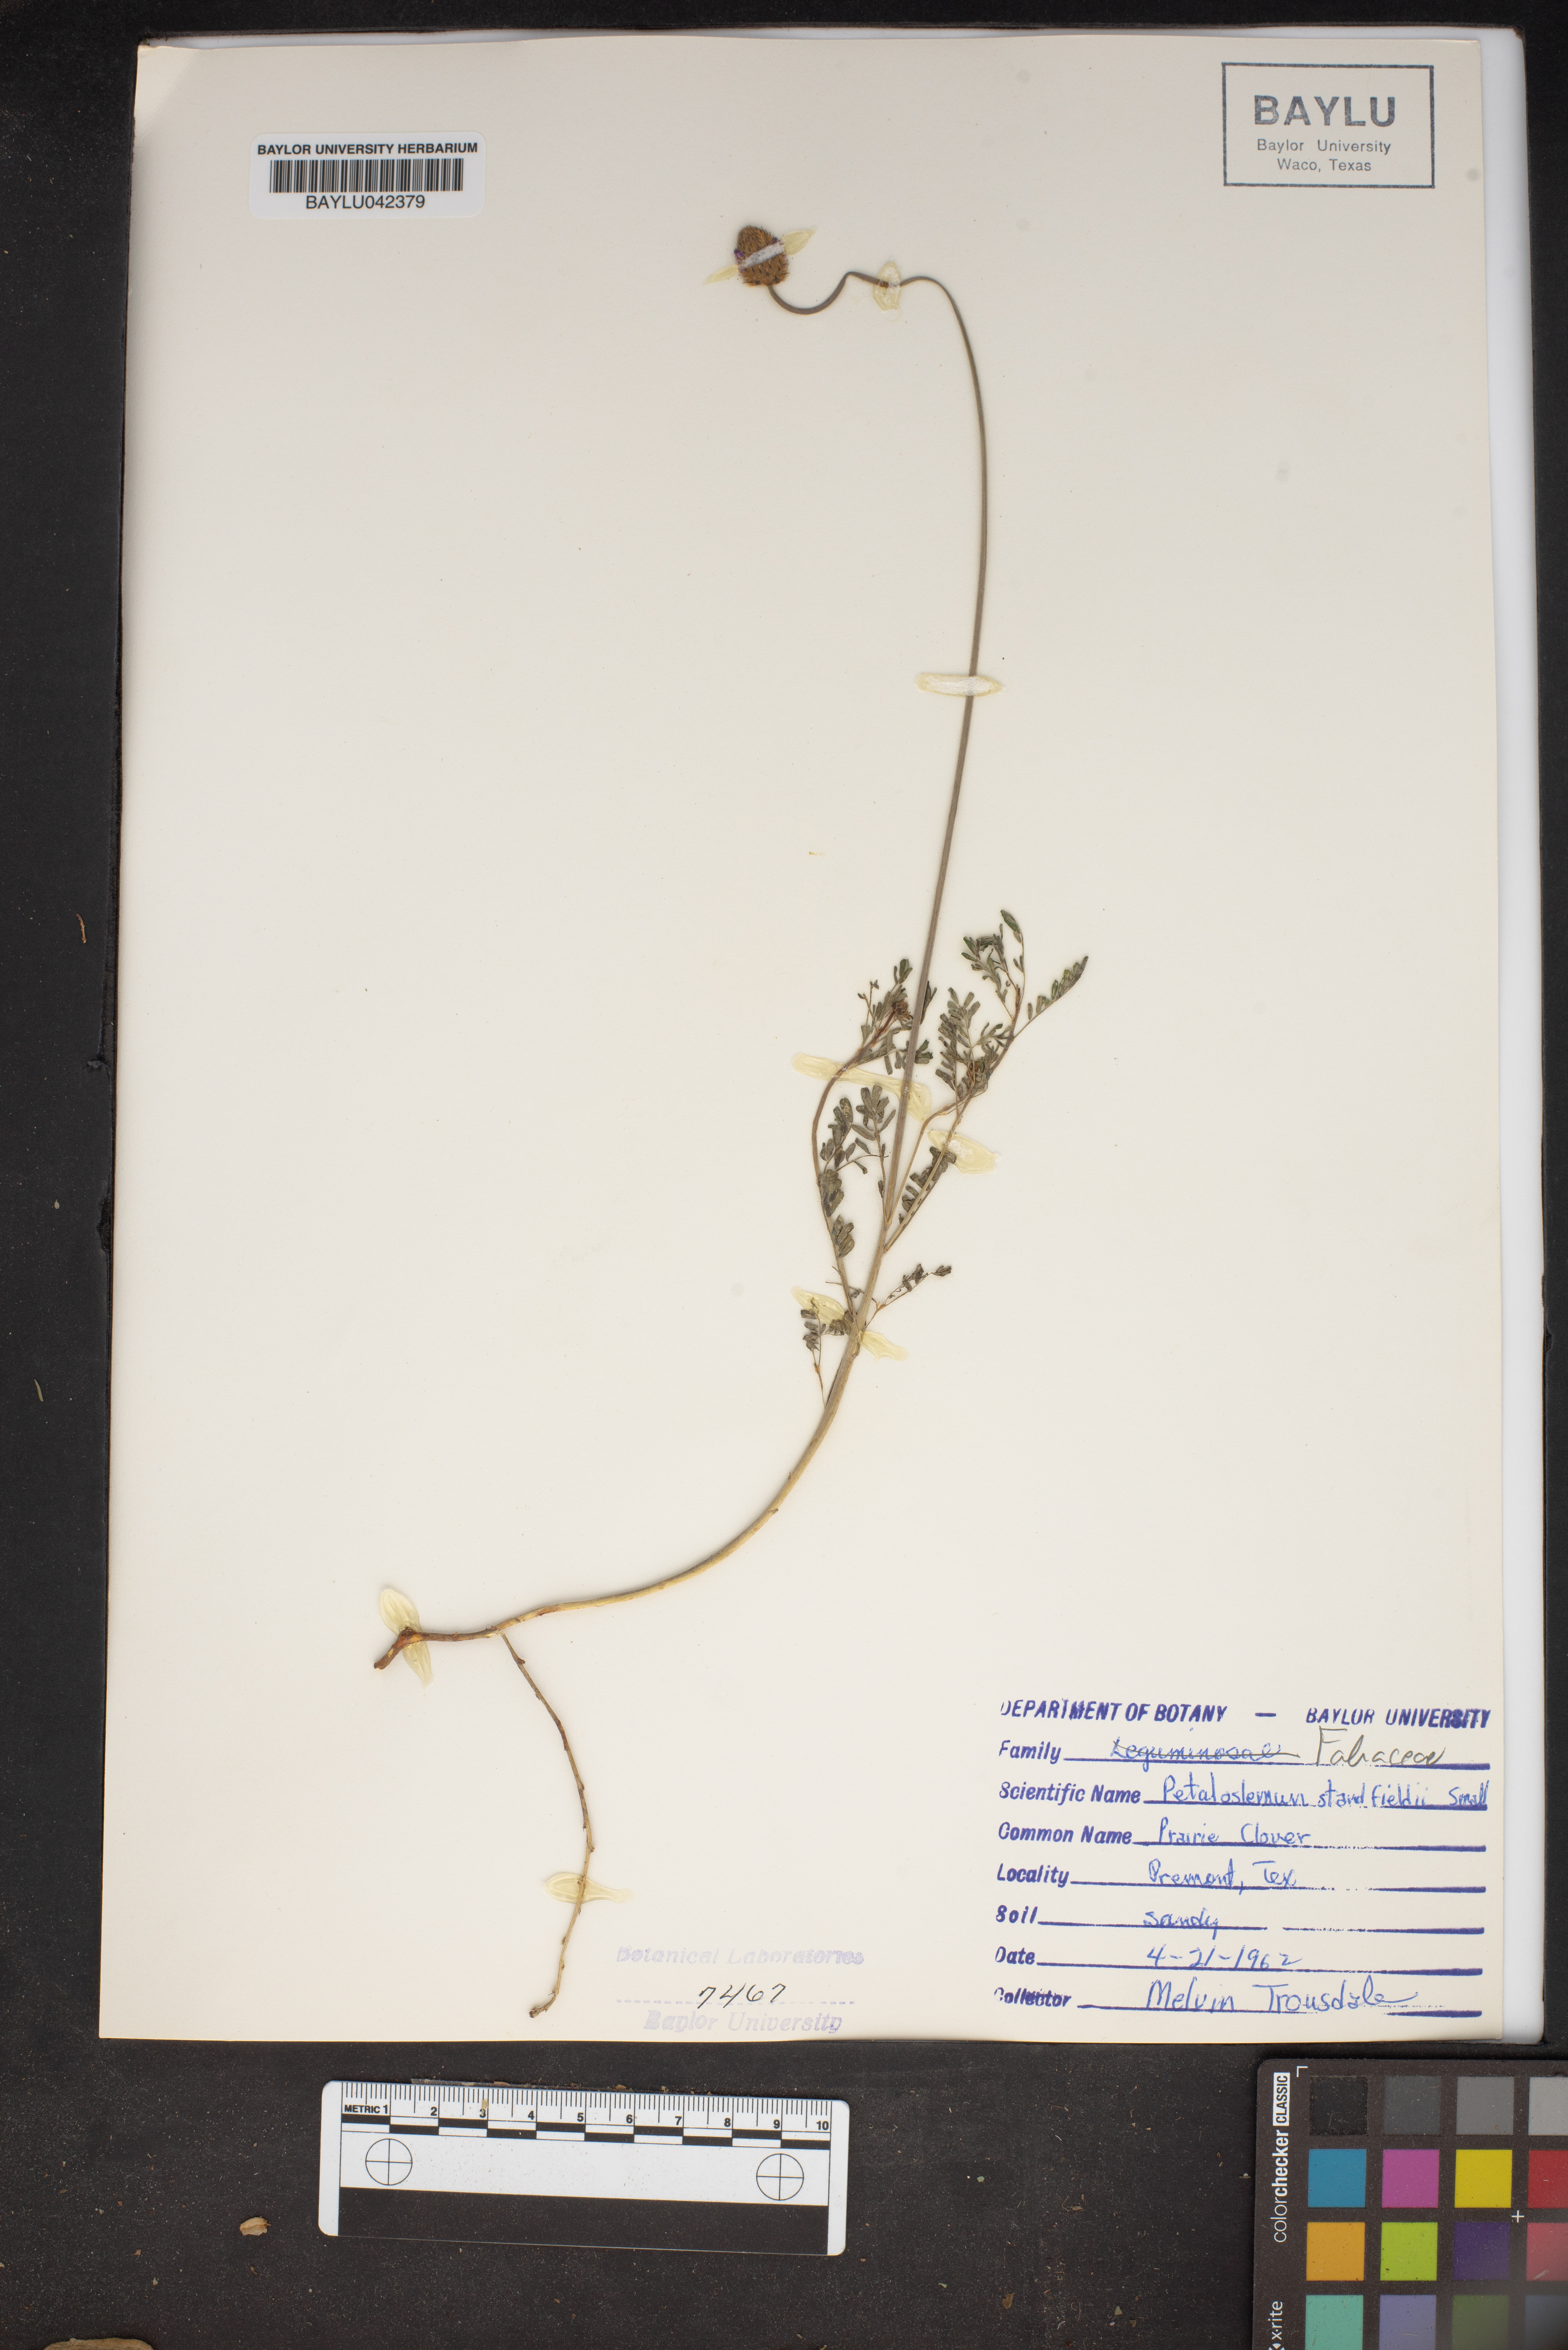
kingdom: Plantae
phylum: Tracheophyta
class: Magnoliopsida
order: Fabales
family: Fabaceae
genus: Dalea
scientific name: Dalea tenuis
